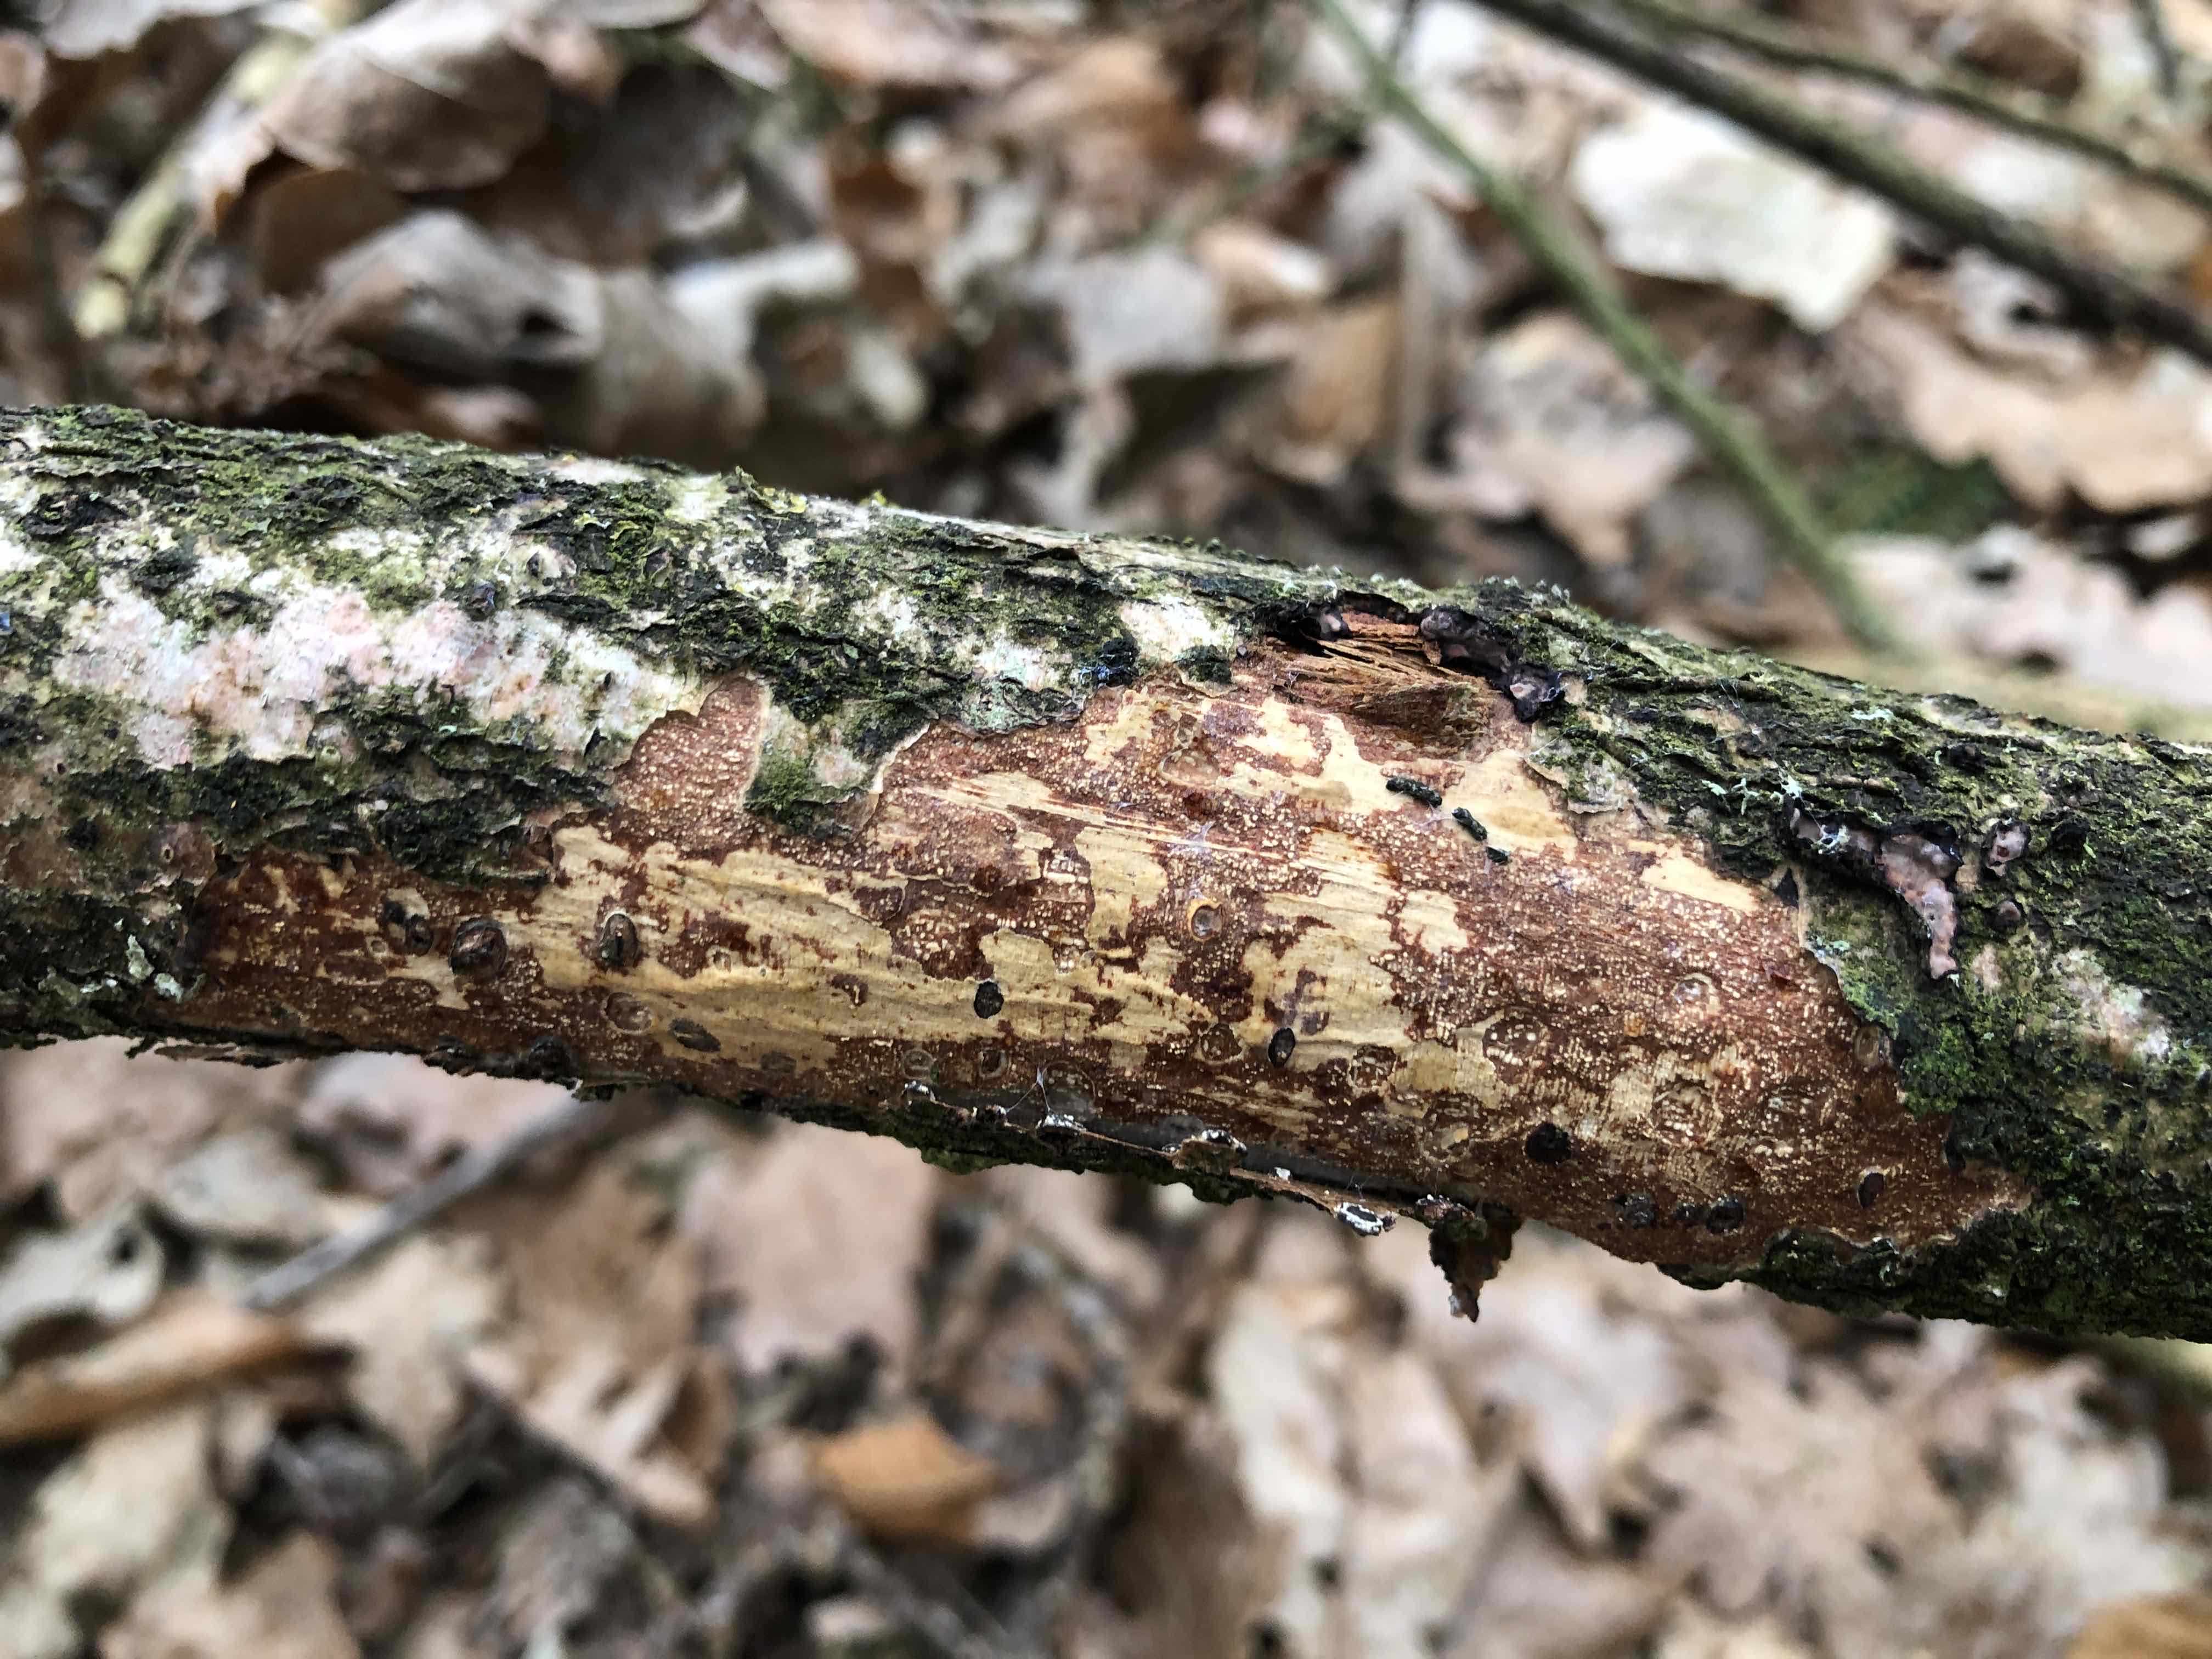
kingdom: Fungi
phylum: Basidiomycota
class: Agaricomycetes
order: Corticiales
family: Vuilleminiaceae
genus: Vuilleminia
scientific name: Vuilleminia comedens
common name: almindelig barksprænger
